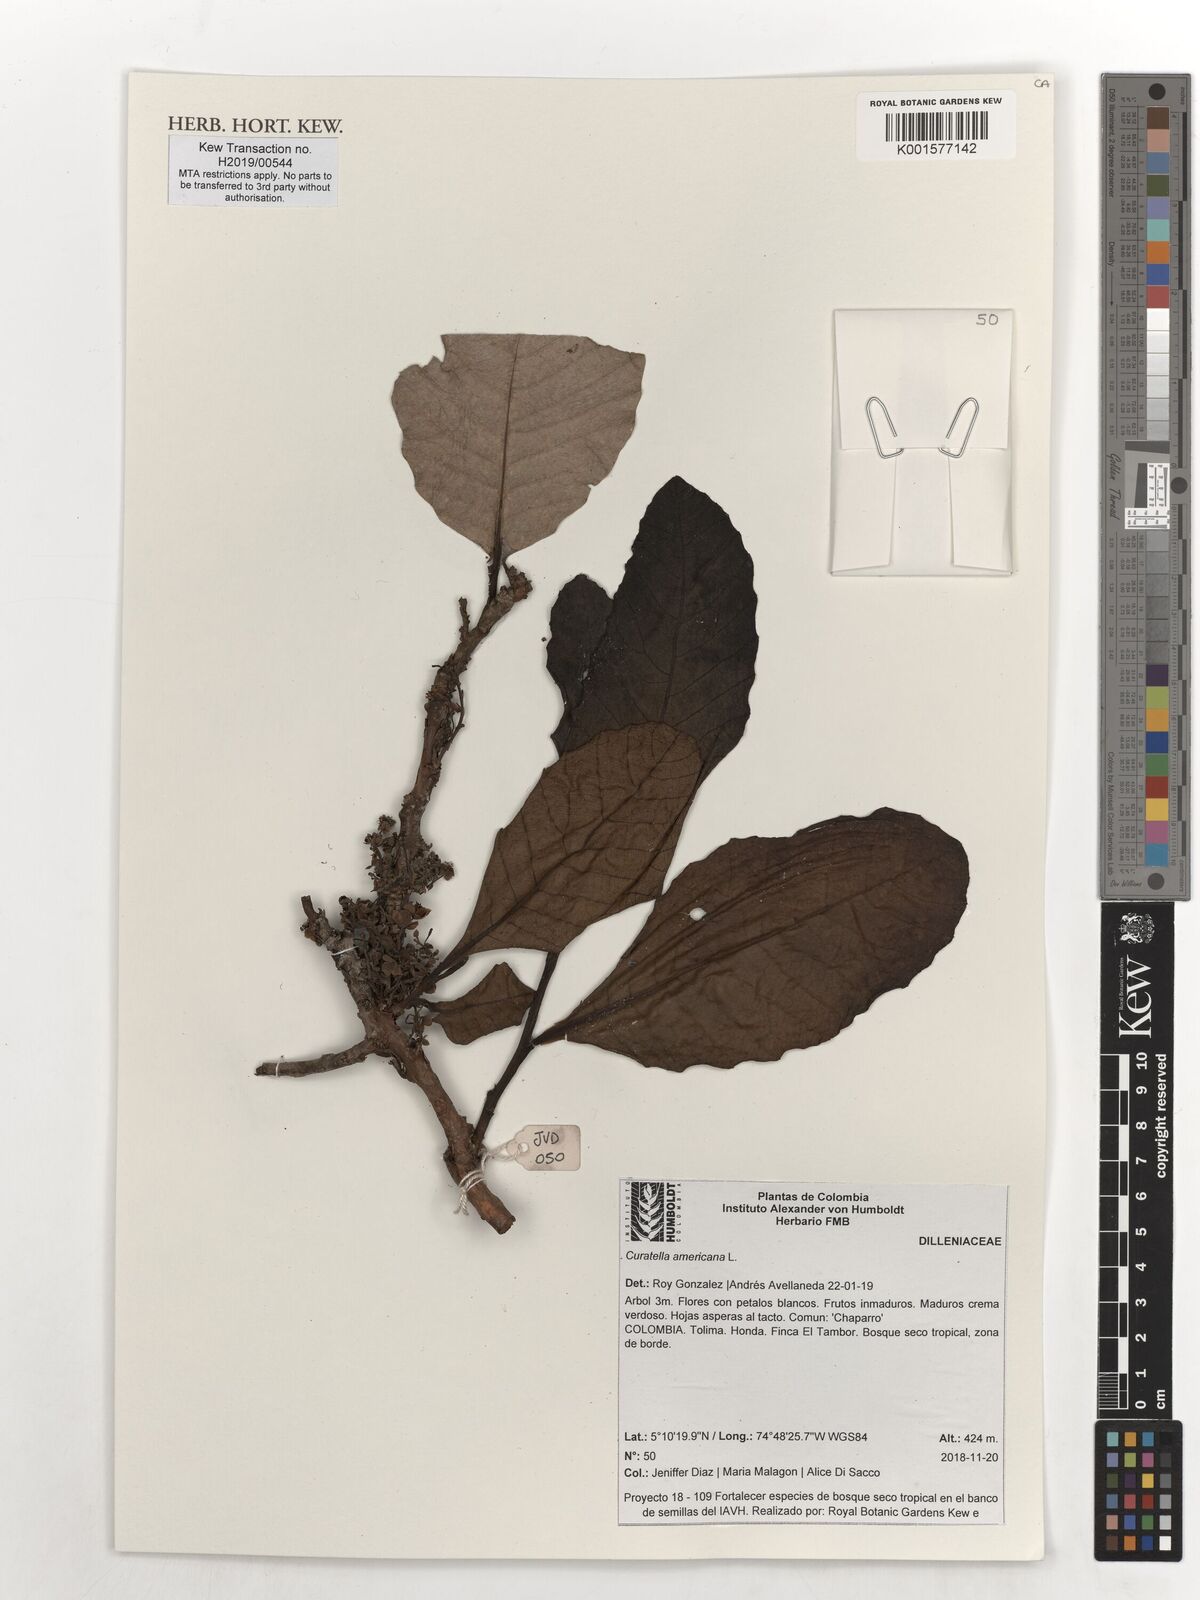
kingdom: Plantae
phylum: Tracheophyta
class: Magnoliopsida
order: Dilleniales
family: Dilleniaceae
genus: Curatella
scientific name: Curatella americana
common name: Sandpaper tree
